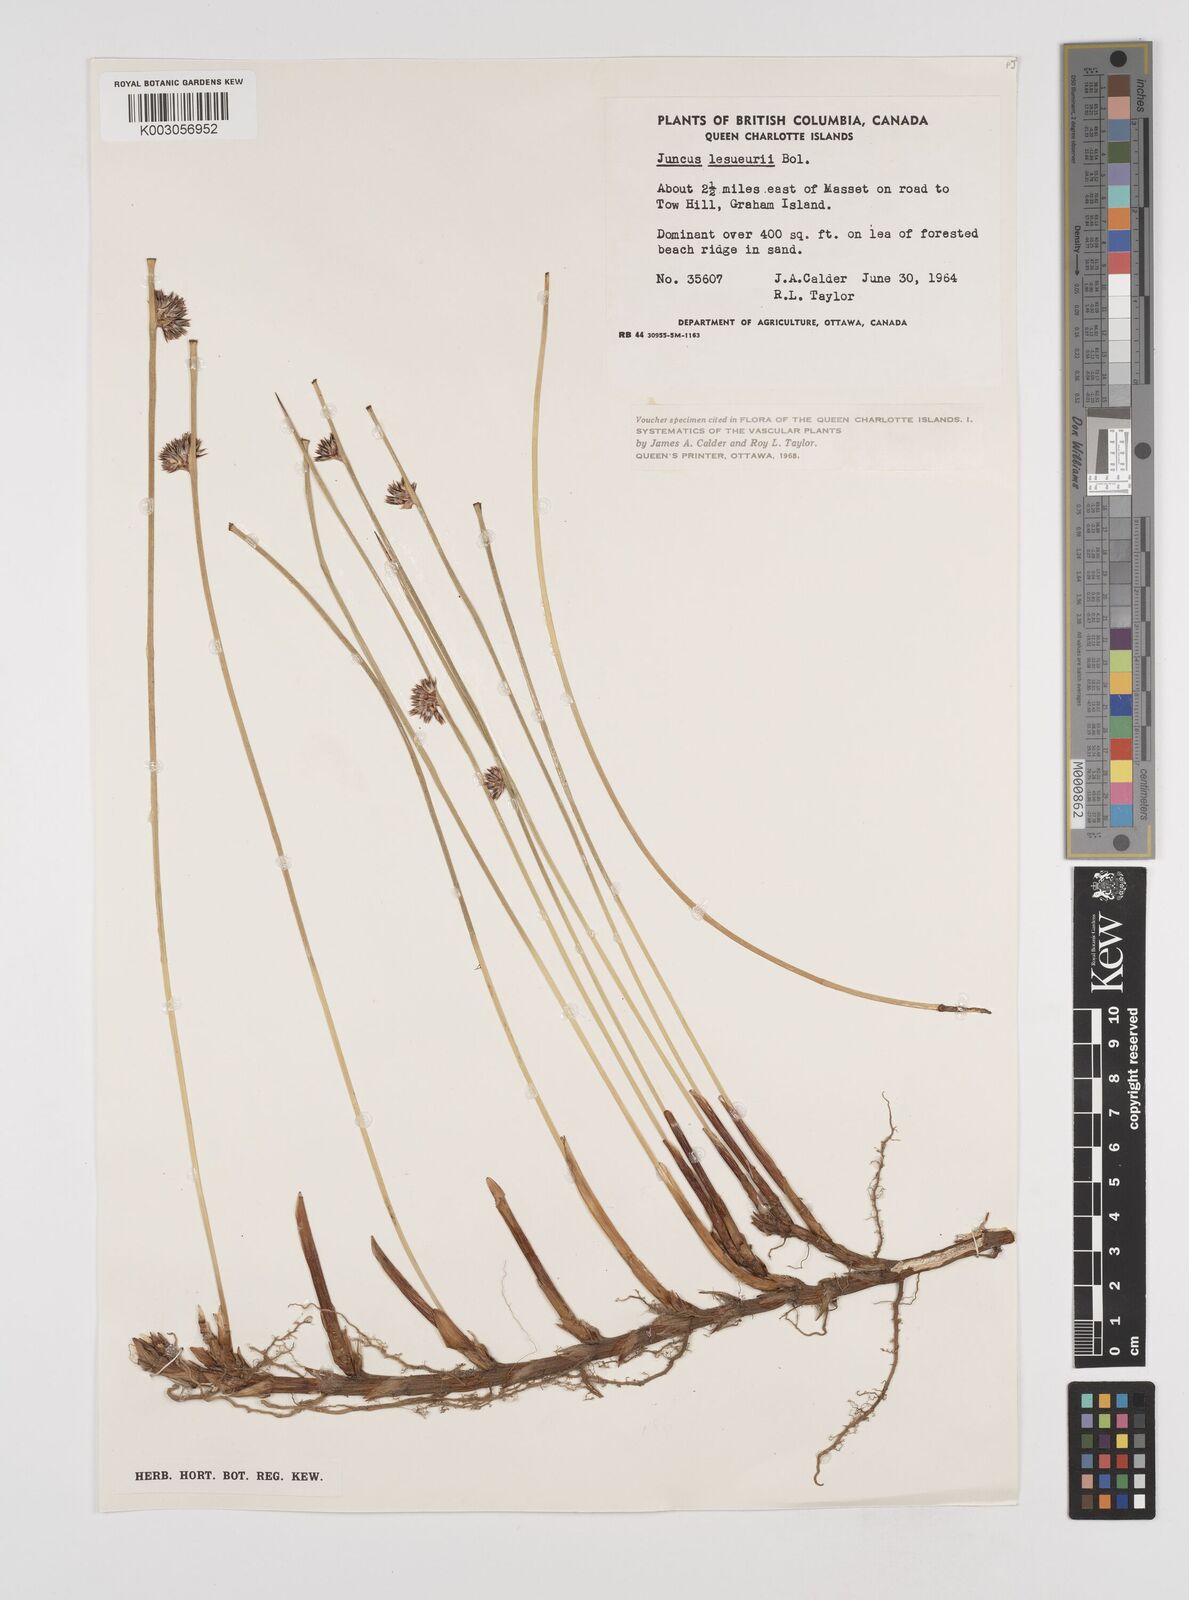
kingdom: Plantae
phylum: Tracheophyta
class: Liliopsida
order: Poales
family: Juncaceae
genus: Juncus
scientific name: Juncus lesueurii
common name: Lesueur's rush
